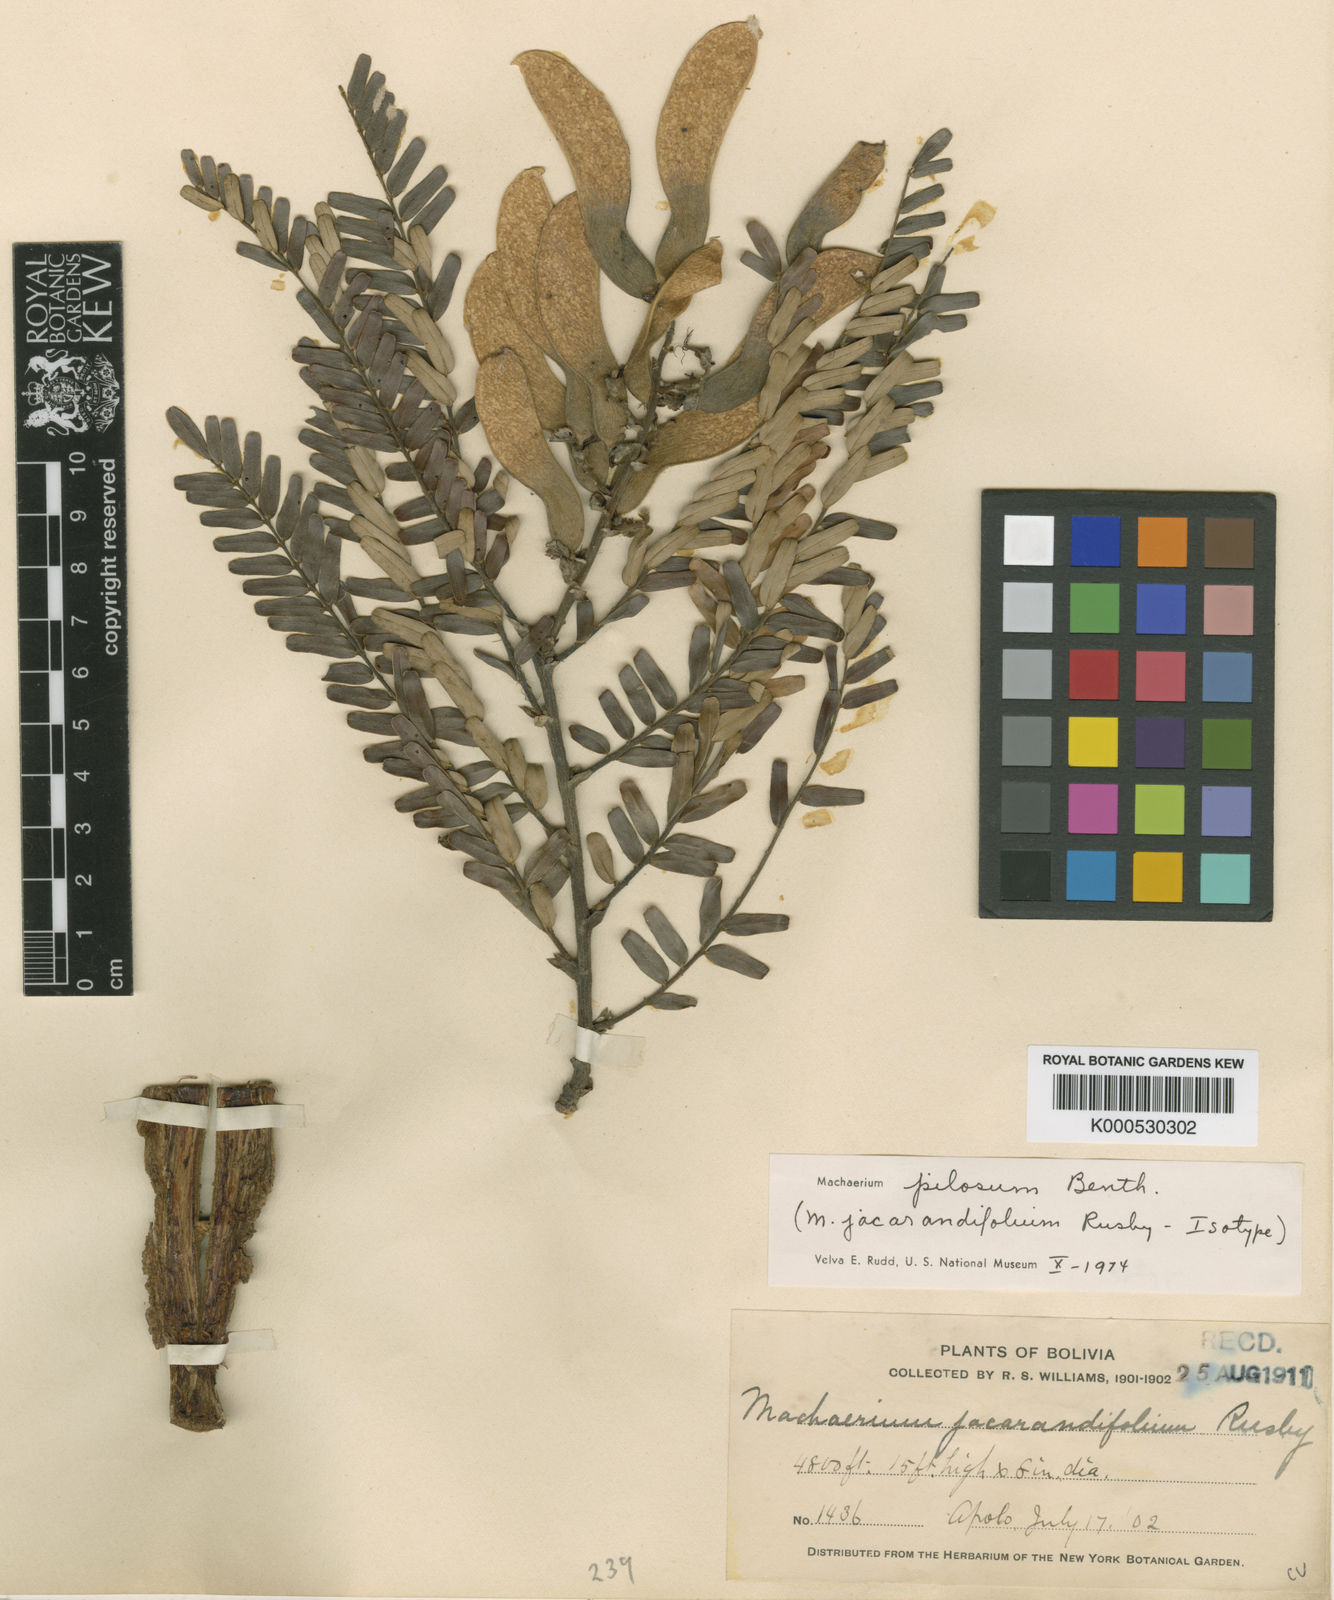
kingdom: Plantae
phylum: Tracheophyta
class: Magnoliopsida
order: Fabales
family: Fabaceae
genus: Machaerium
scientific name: Machaerium hirtum
